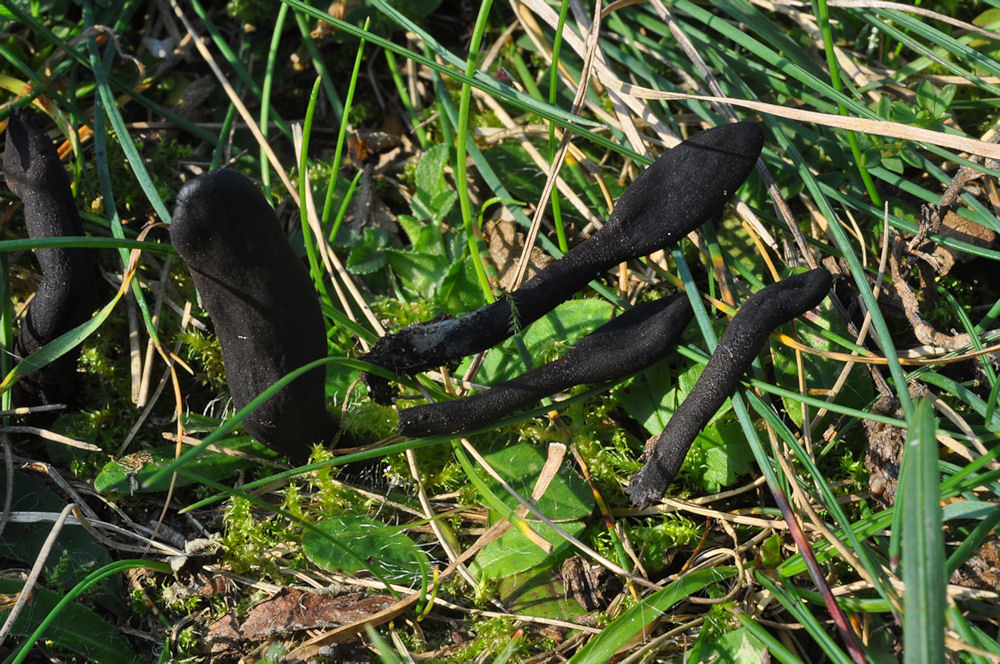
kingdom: Fungi
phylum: Ascomycota
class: Geoglossomycetes
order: Geoglossales
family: Geoglossaceae
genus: Geoglossum
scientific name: Geoglossum cookeianum
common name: bred jordtunge
